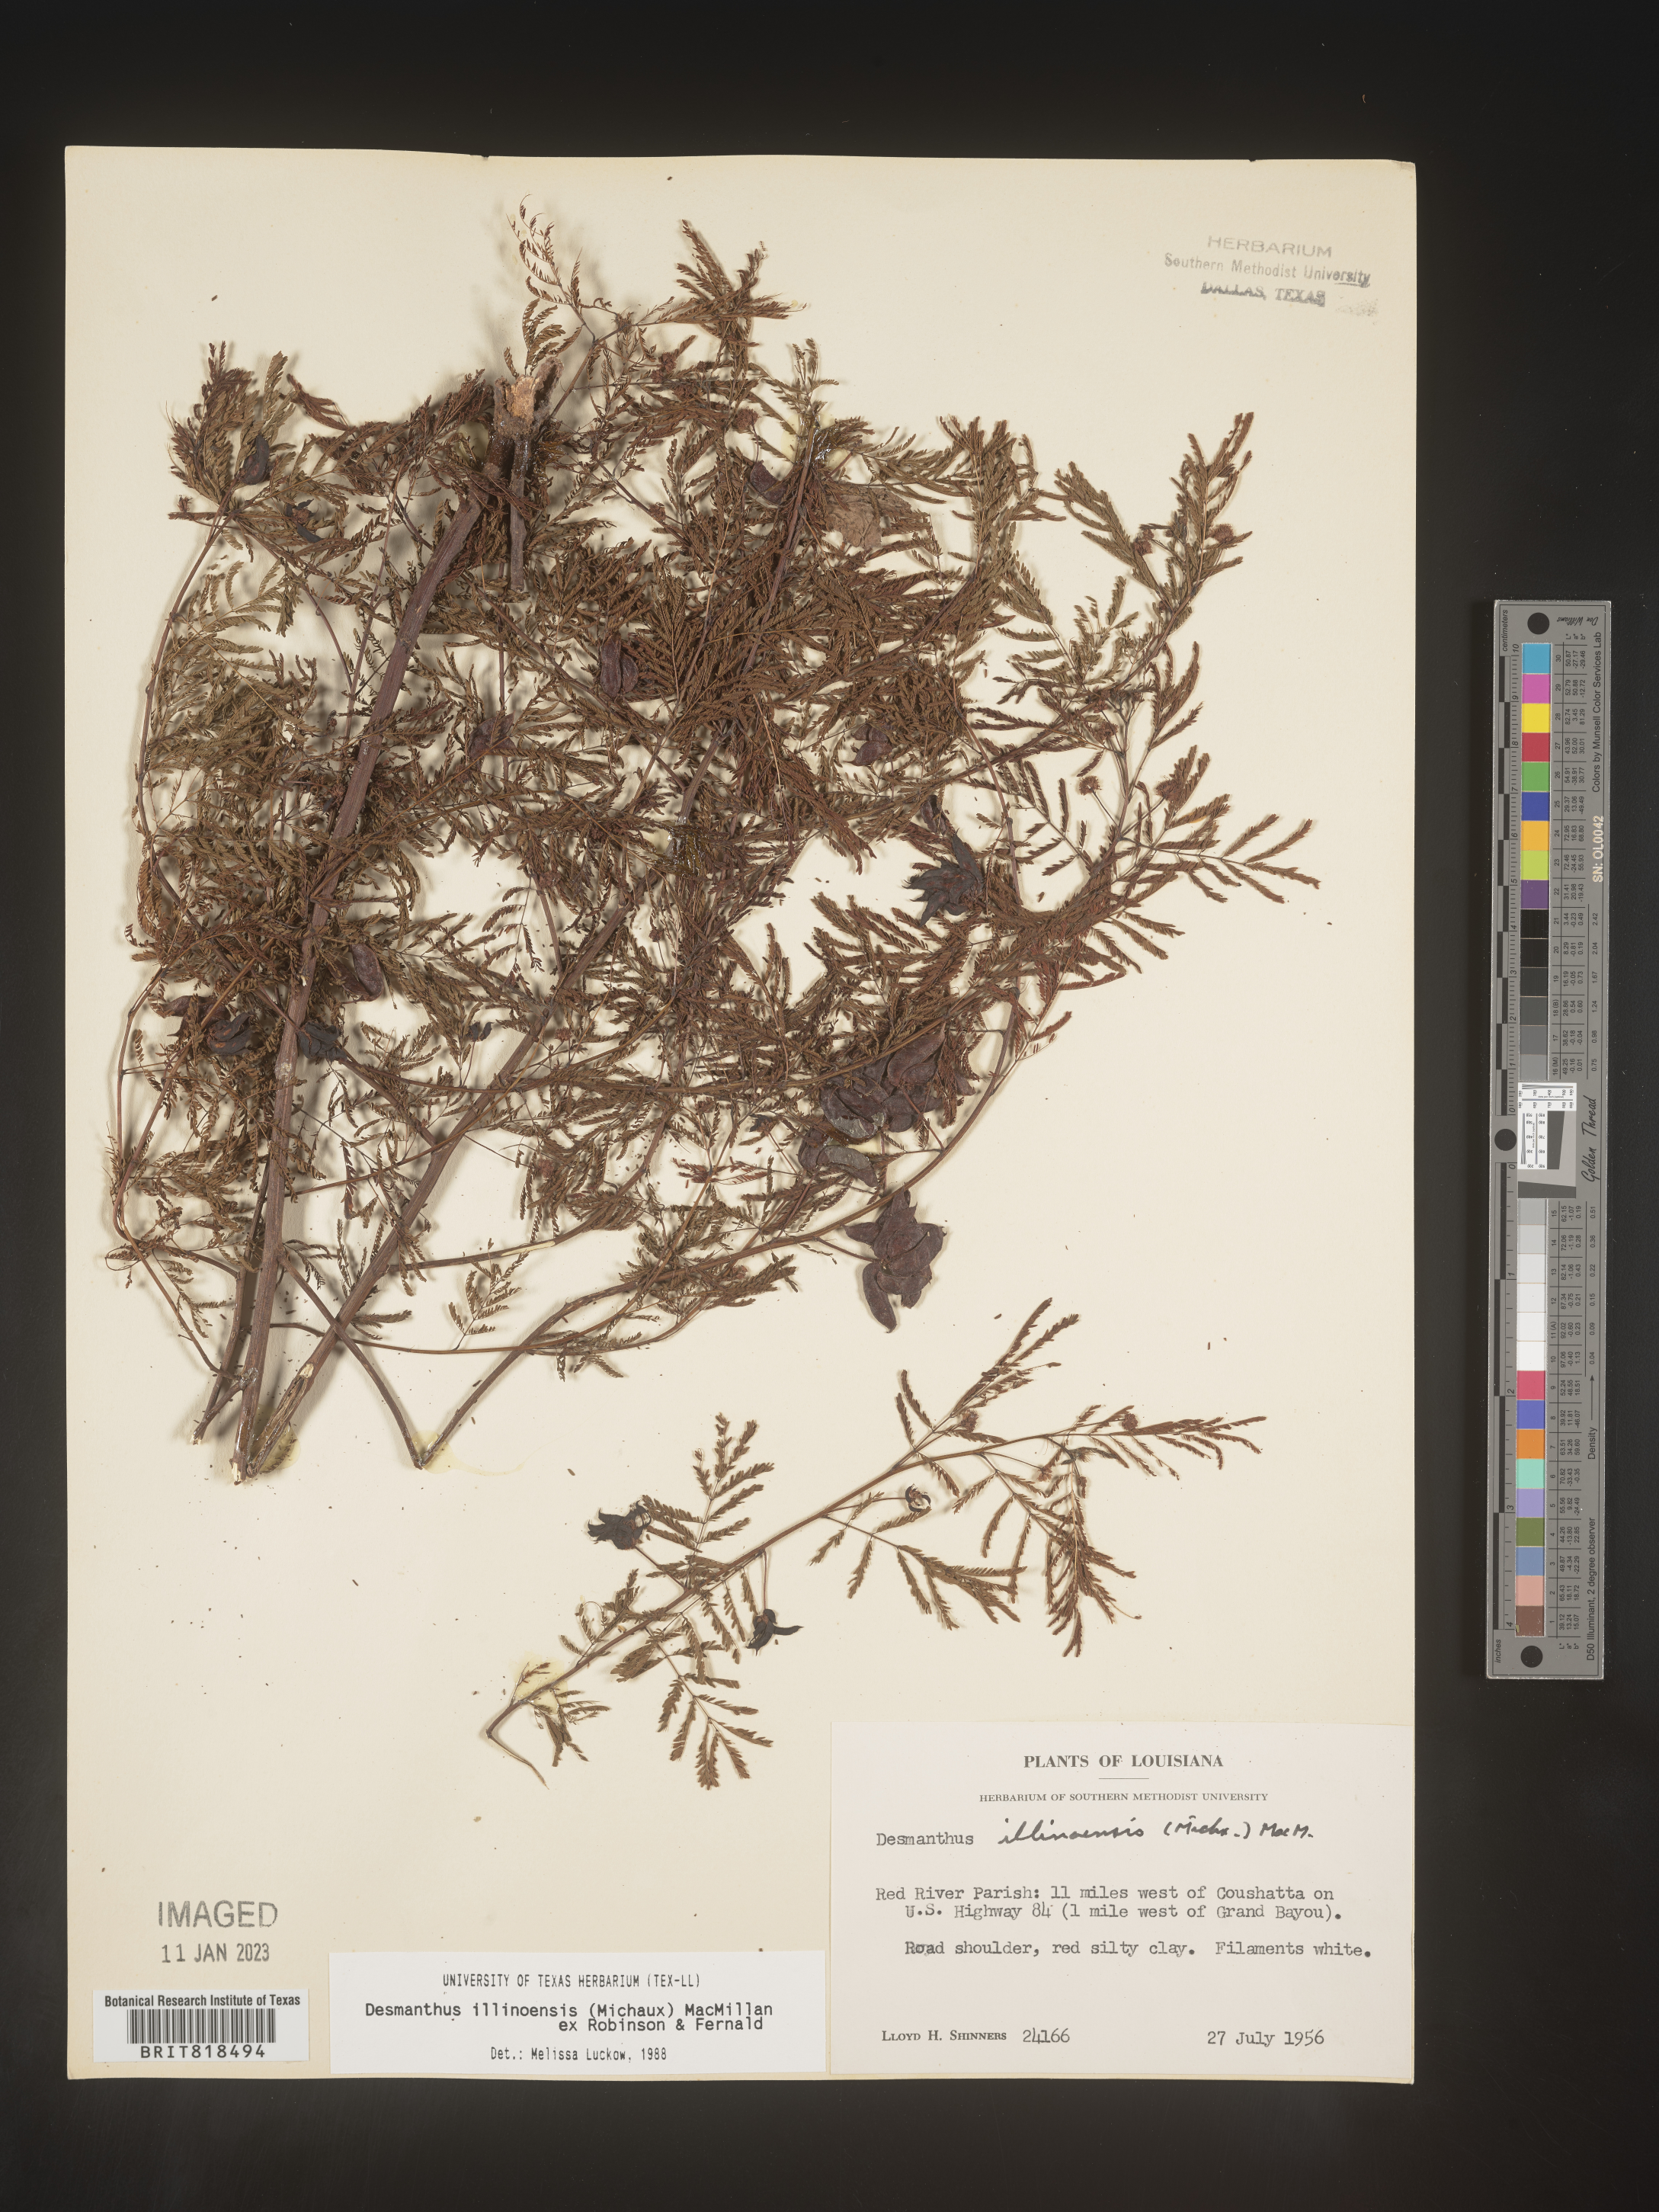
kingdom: Plantae
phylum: Tracheophyta
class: Magnoliopsida
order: Fabales
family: Fabaceae
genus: Desmanthus
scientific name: Desmanthus illinoensis
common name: Illinois bundle-flower
